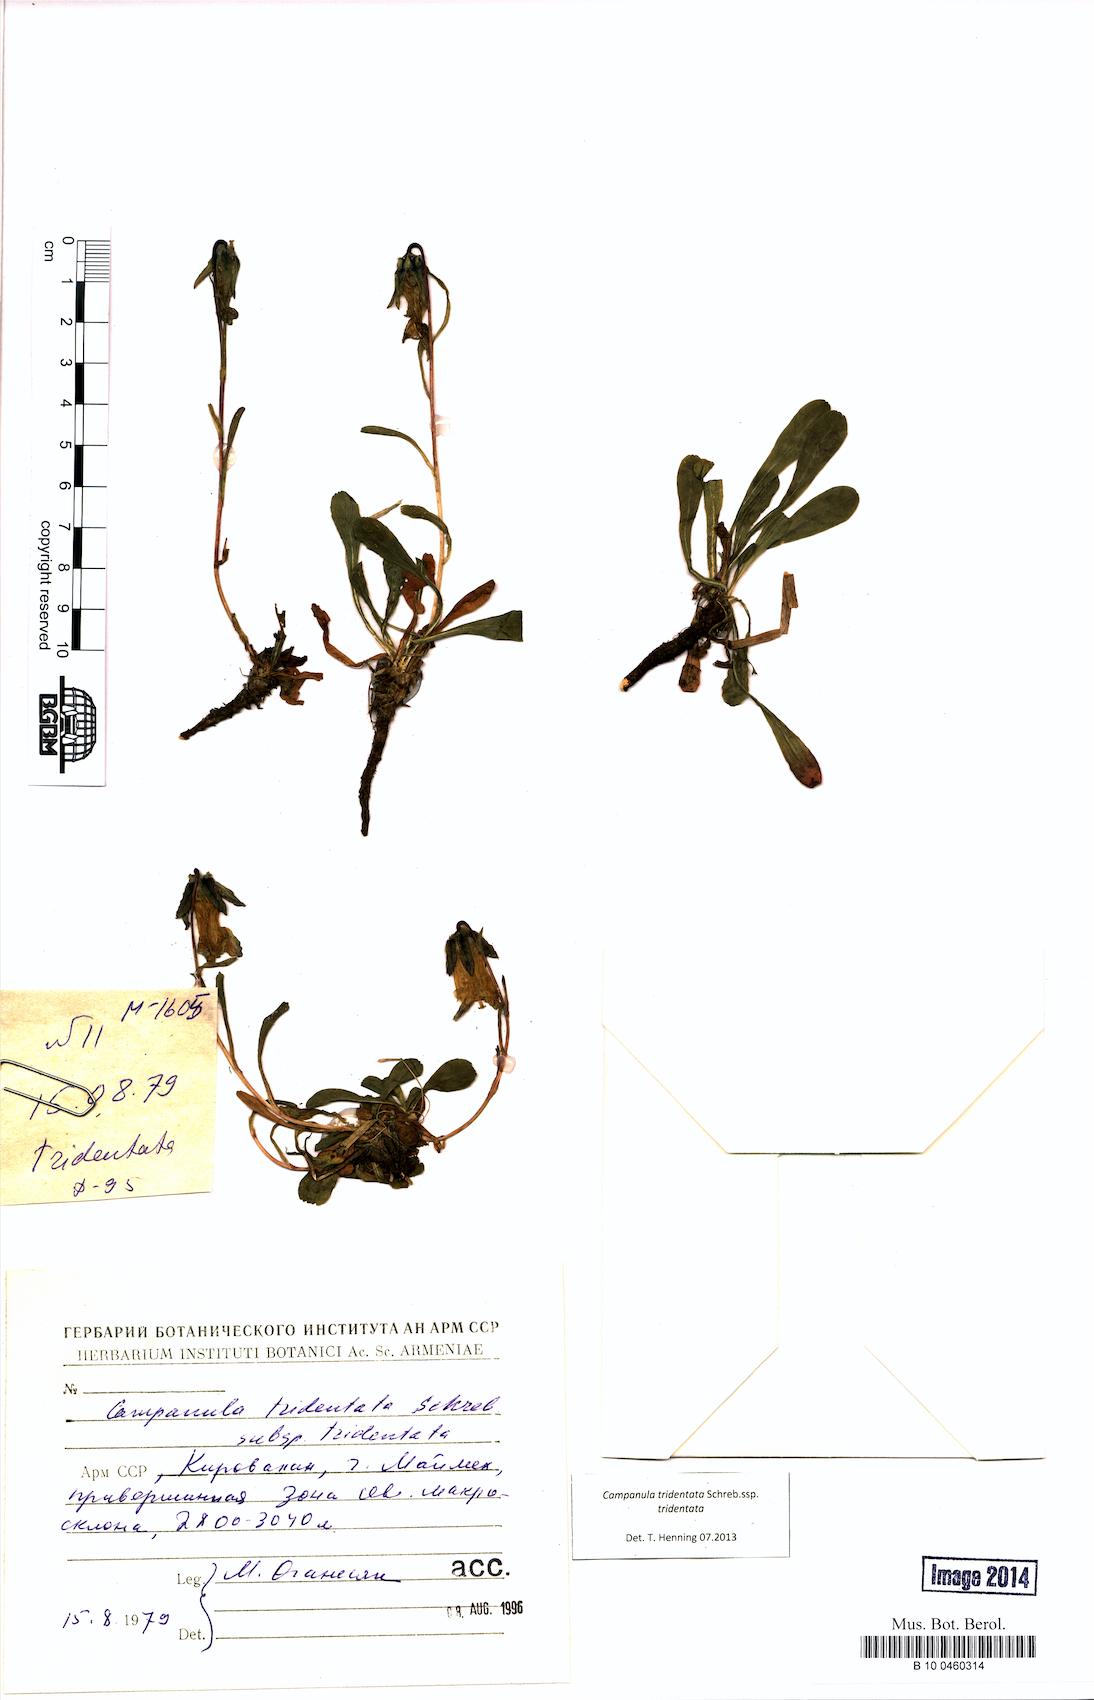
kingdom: Plantae
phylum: Tracheophyta
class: Magnoliopsida
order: Asterales
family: Campanulaceae
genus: Campanula
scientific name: Campanula tridentata
